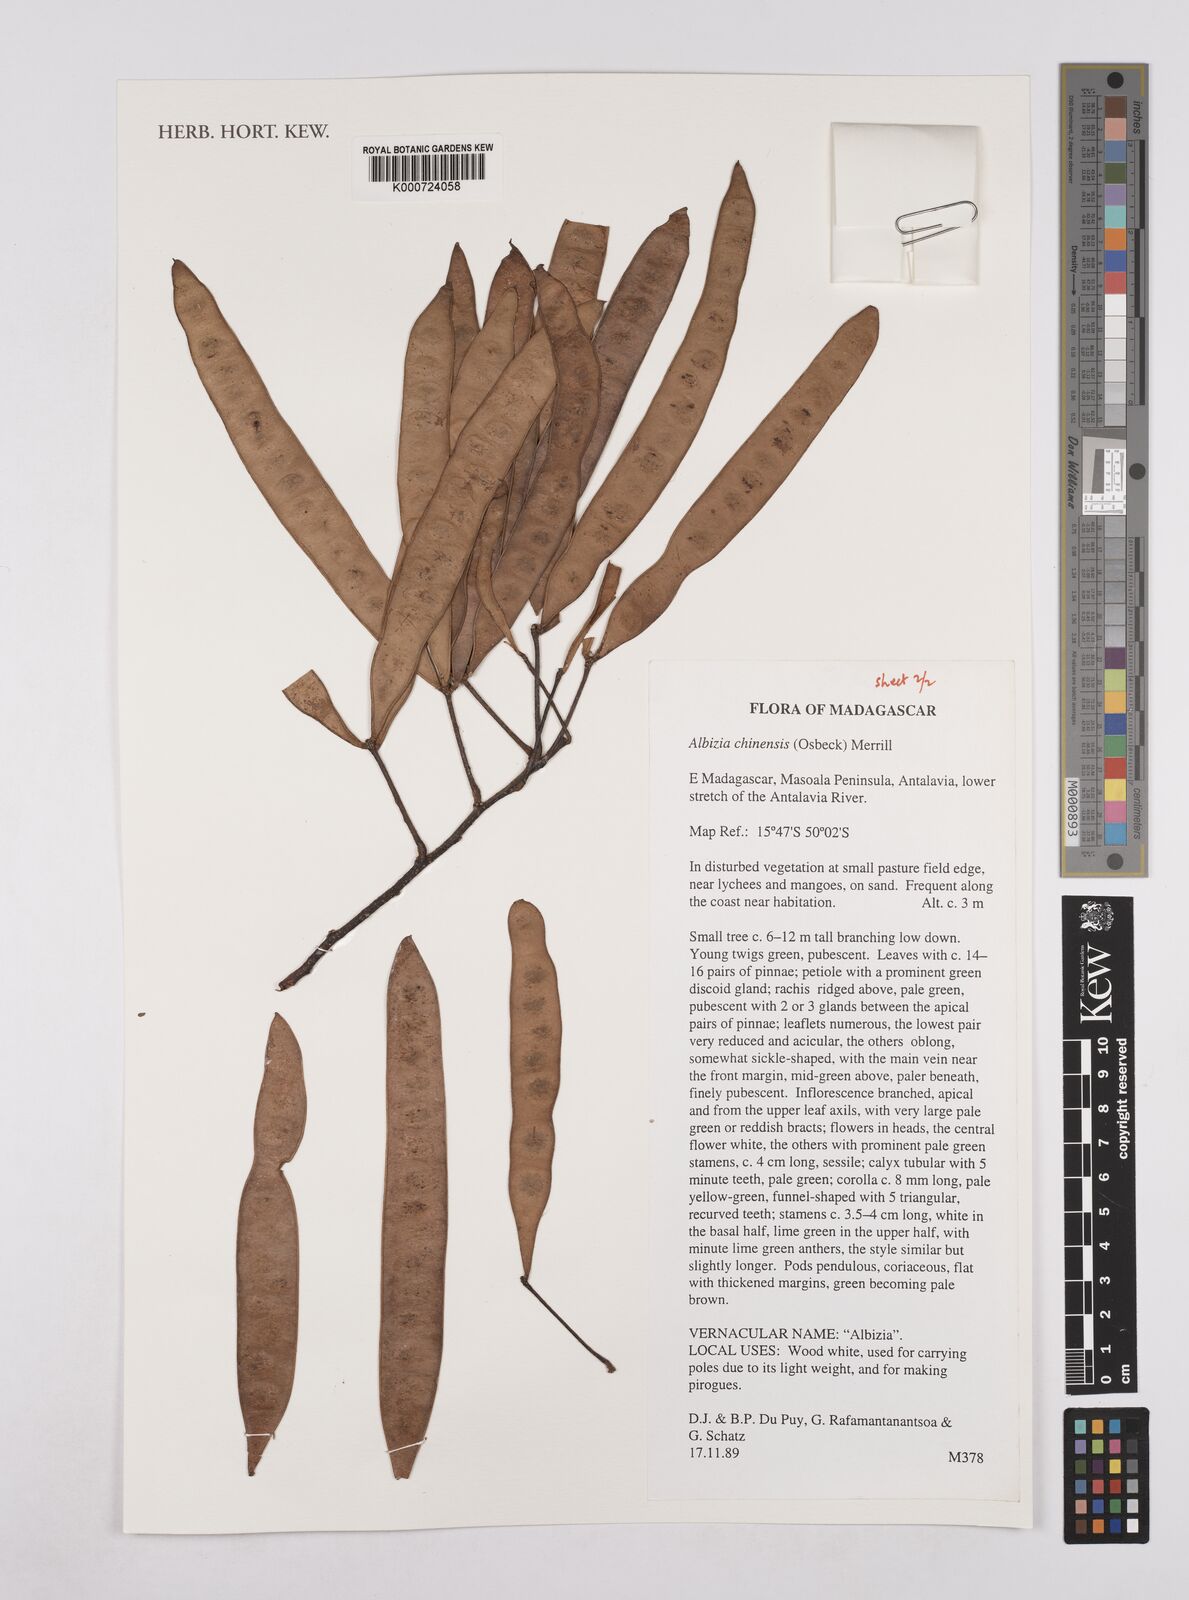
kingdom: Plantae
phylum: Tracheophyta
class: Magnoliopsida
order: Fabales
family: Fabaceae
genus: Albizia
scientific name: Albizia chinensis
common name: Chinese albizia
